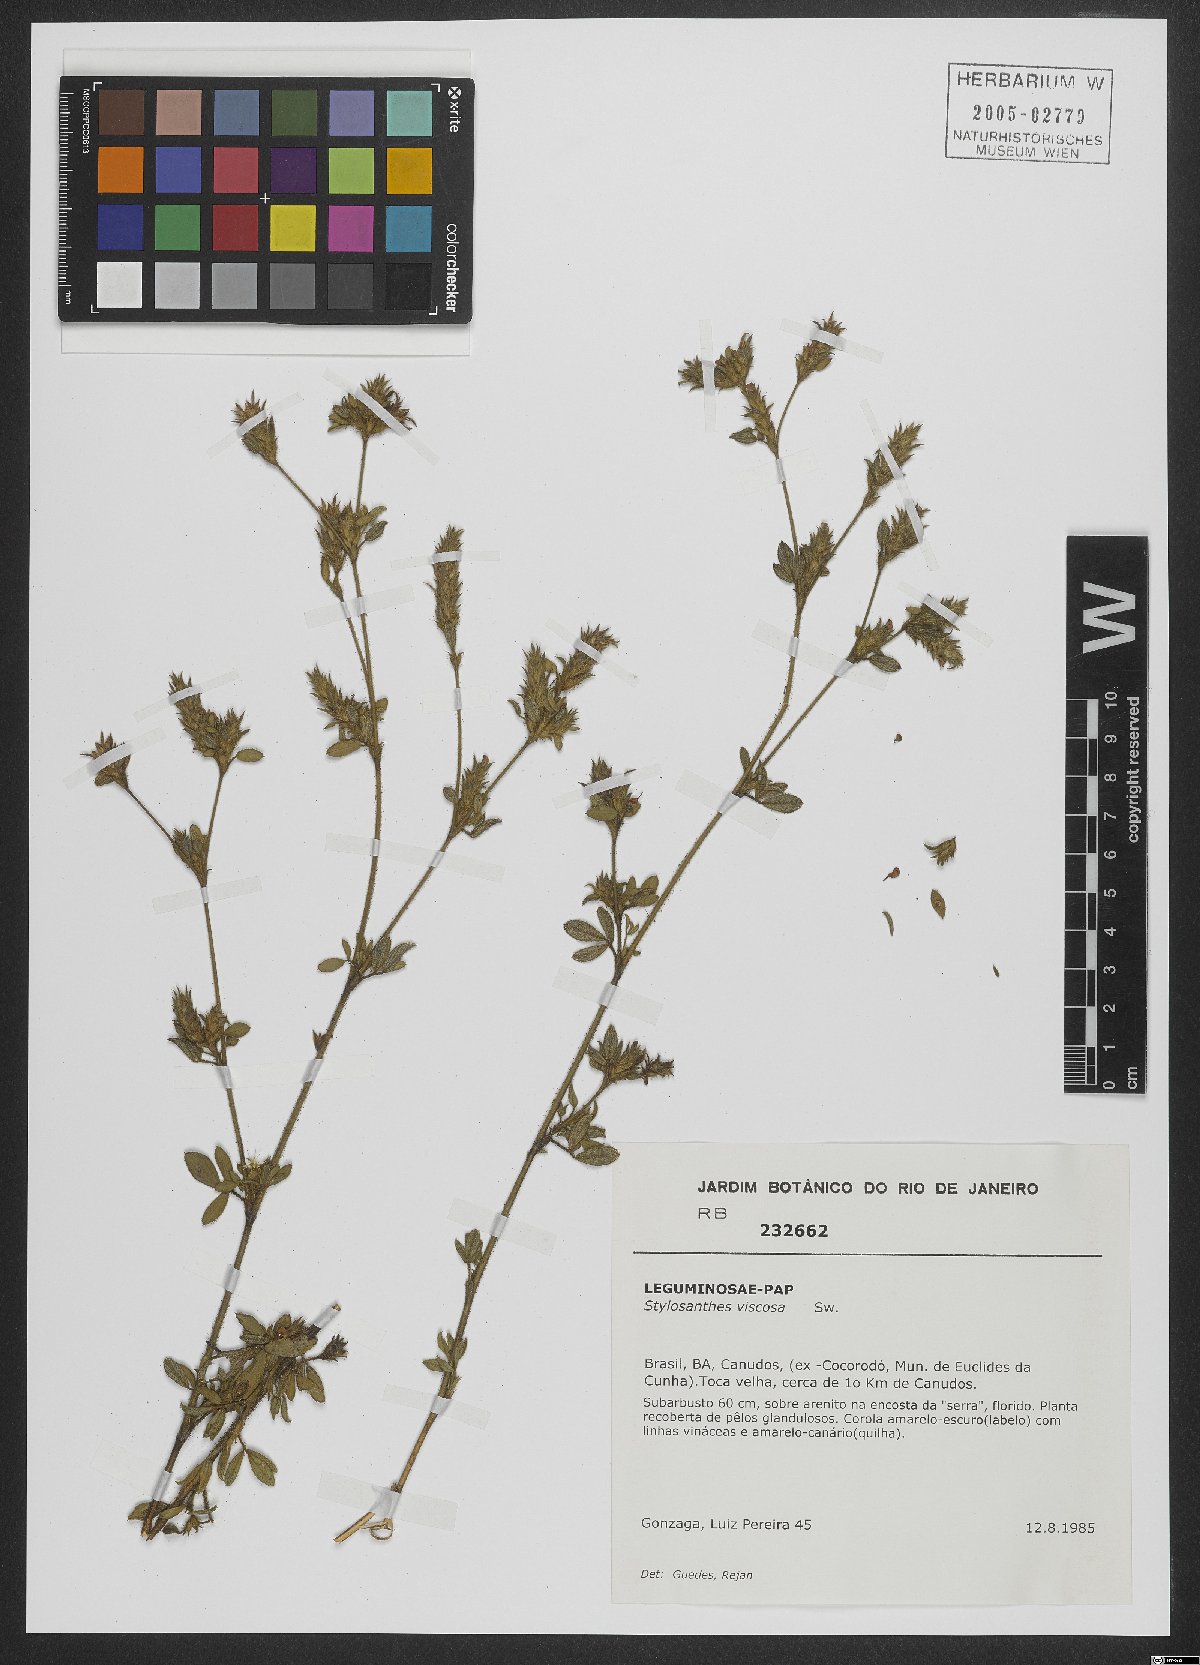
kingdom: Plantae
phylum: Tracheophyta
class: Magnoliopsida
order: Fabales
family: Fabaceae
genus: Stylosanthes
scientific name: Stylosanthes viscosa
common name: Viscid pencil-flower
